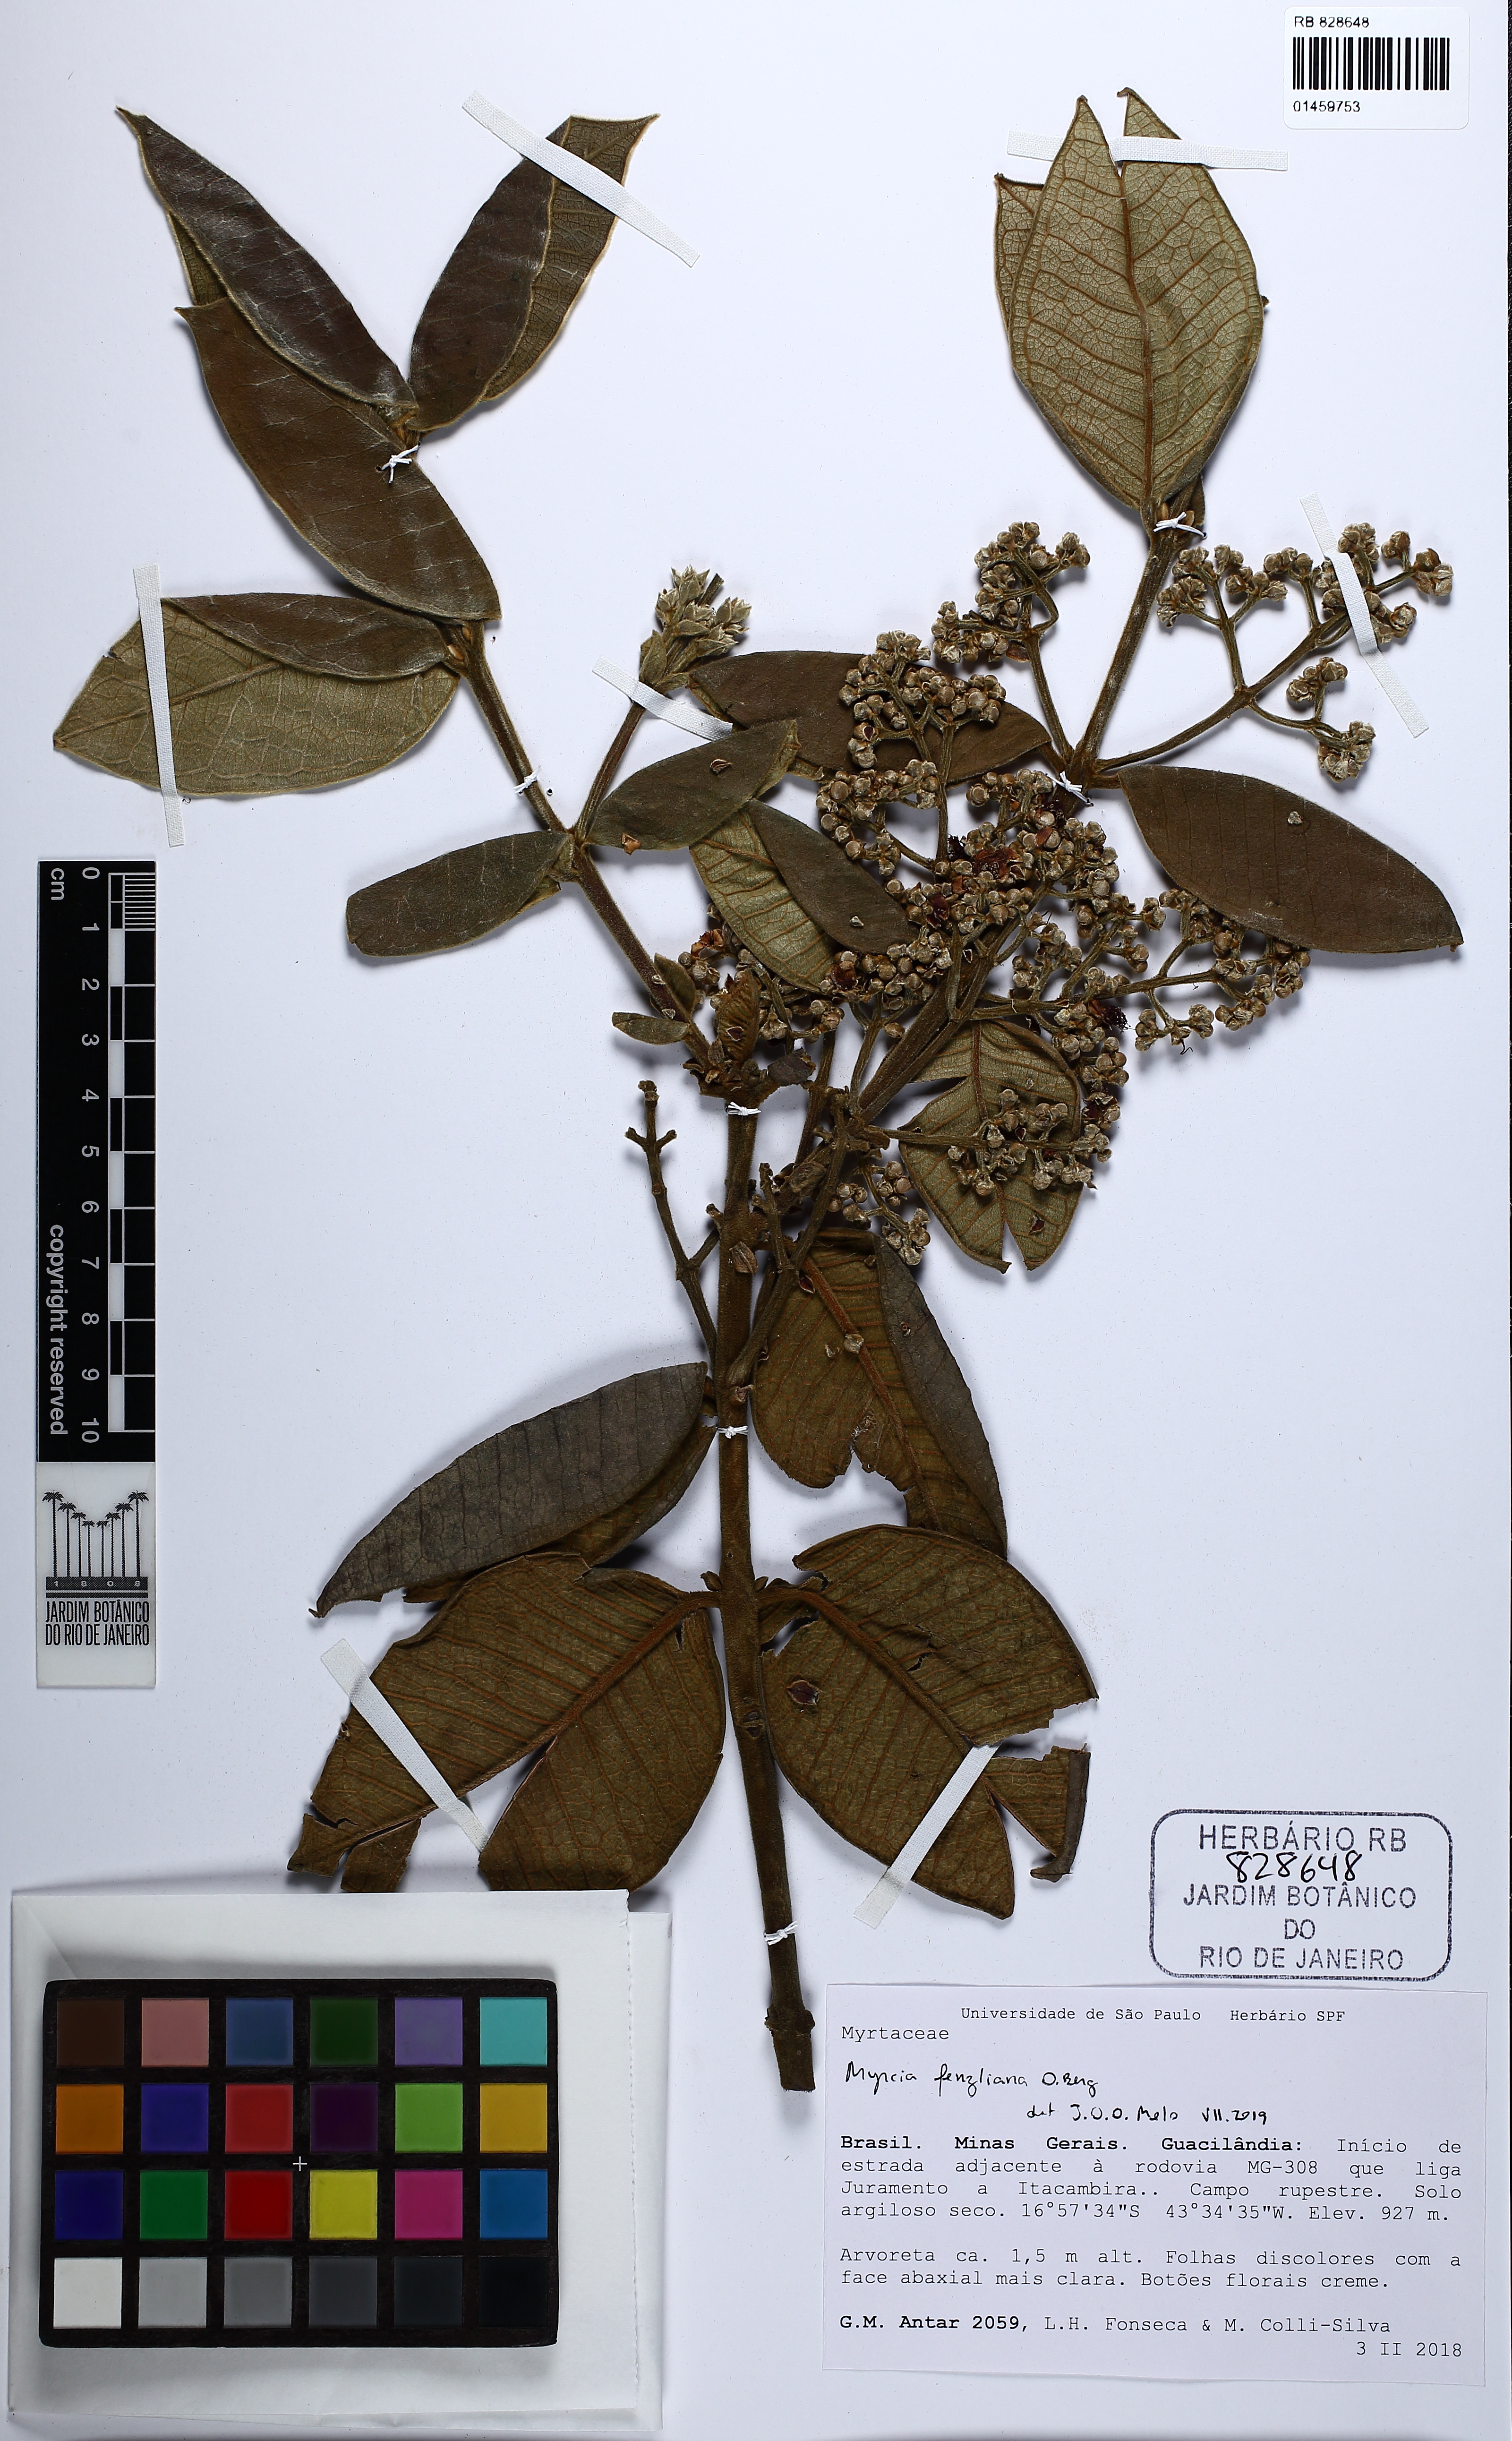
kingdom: Plantae
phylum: Tracheophyta
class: Magnoliopsida
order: Myrtales
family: Myrtaceae
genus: Myrcia
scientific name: Myrcia fenzliana
